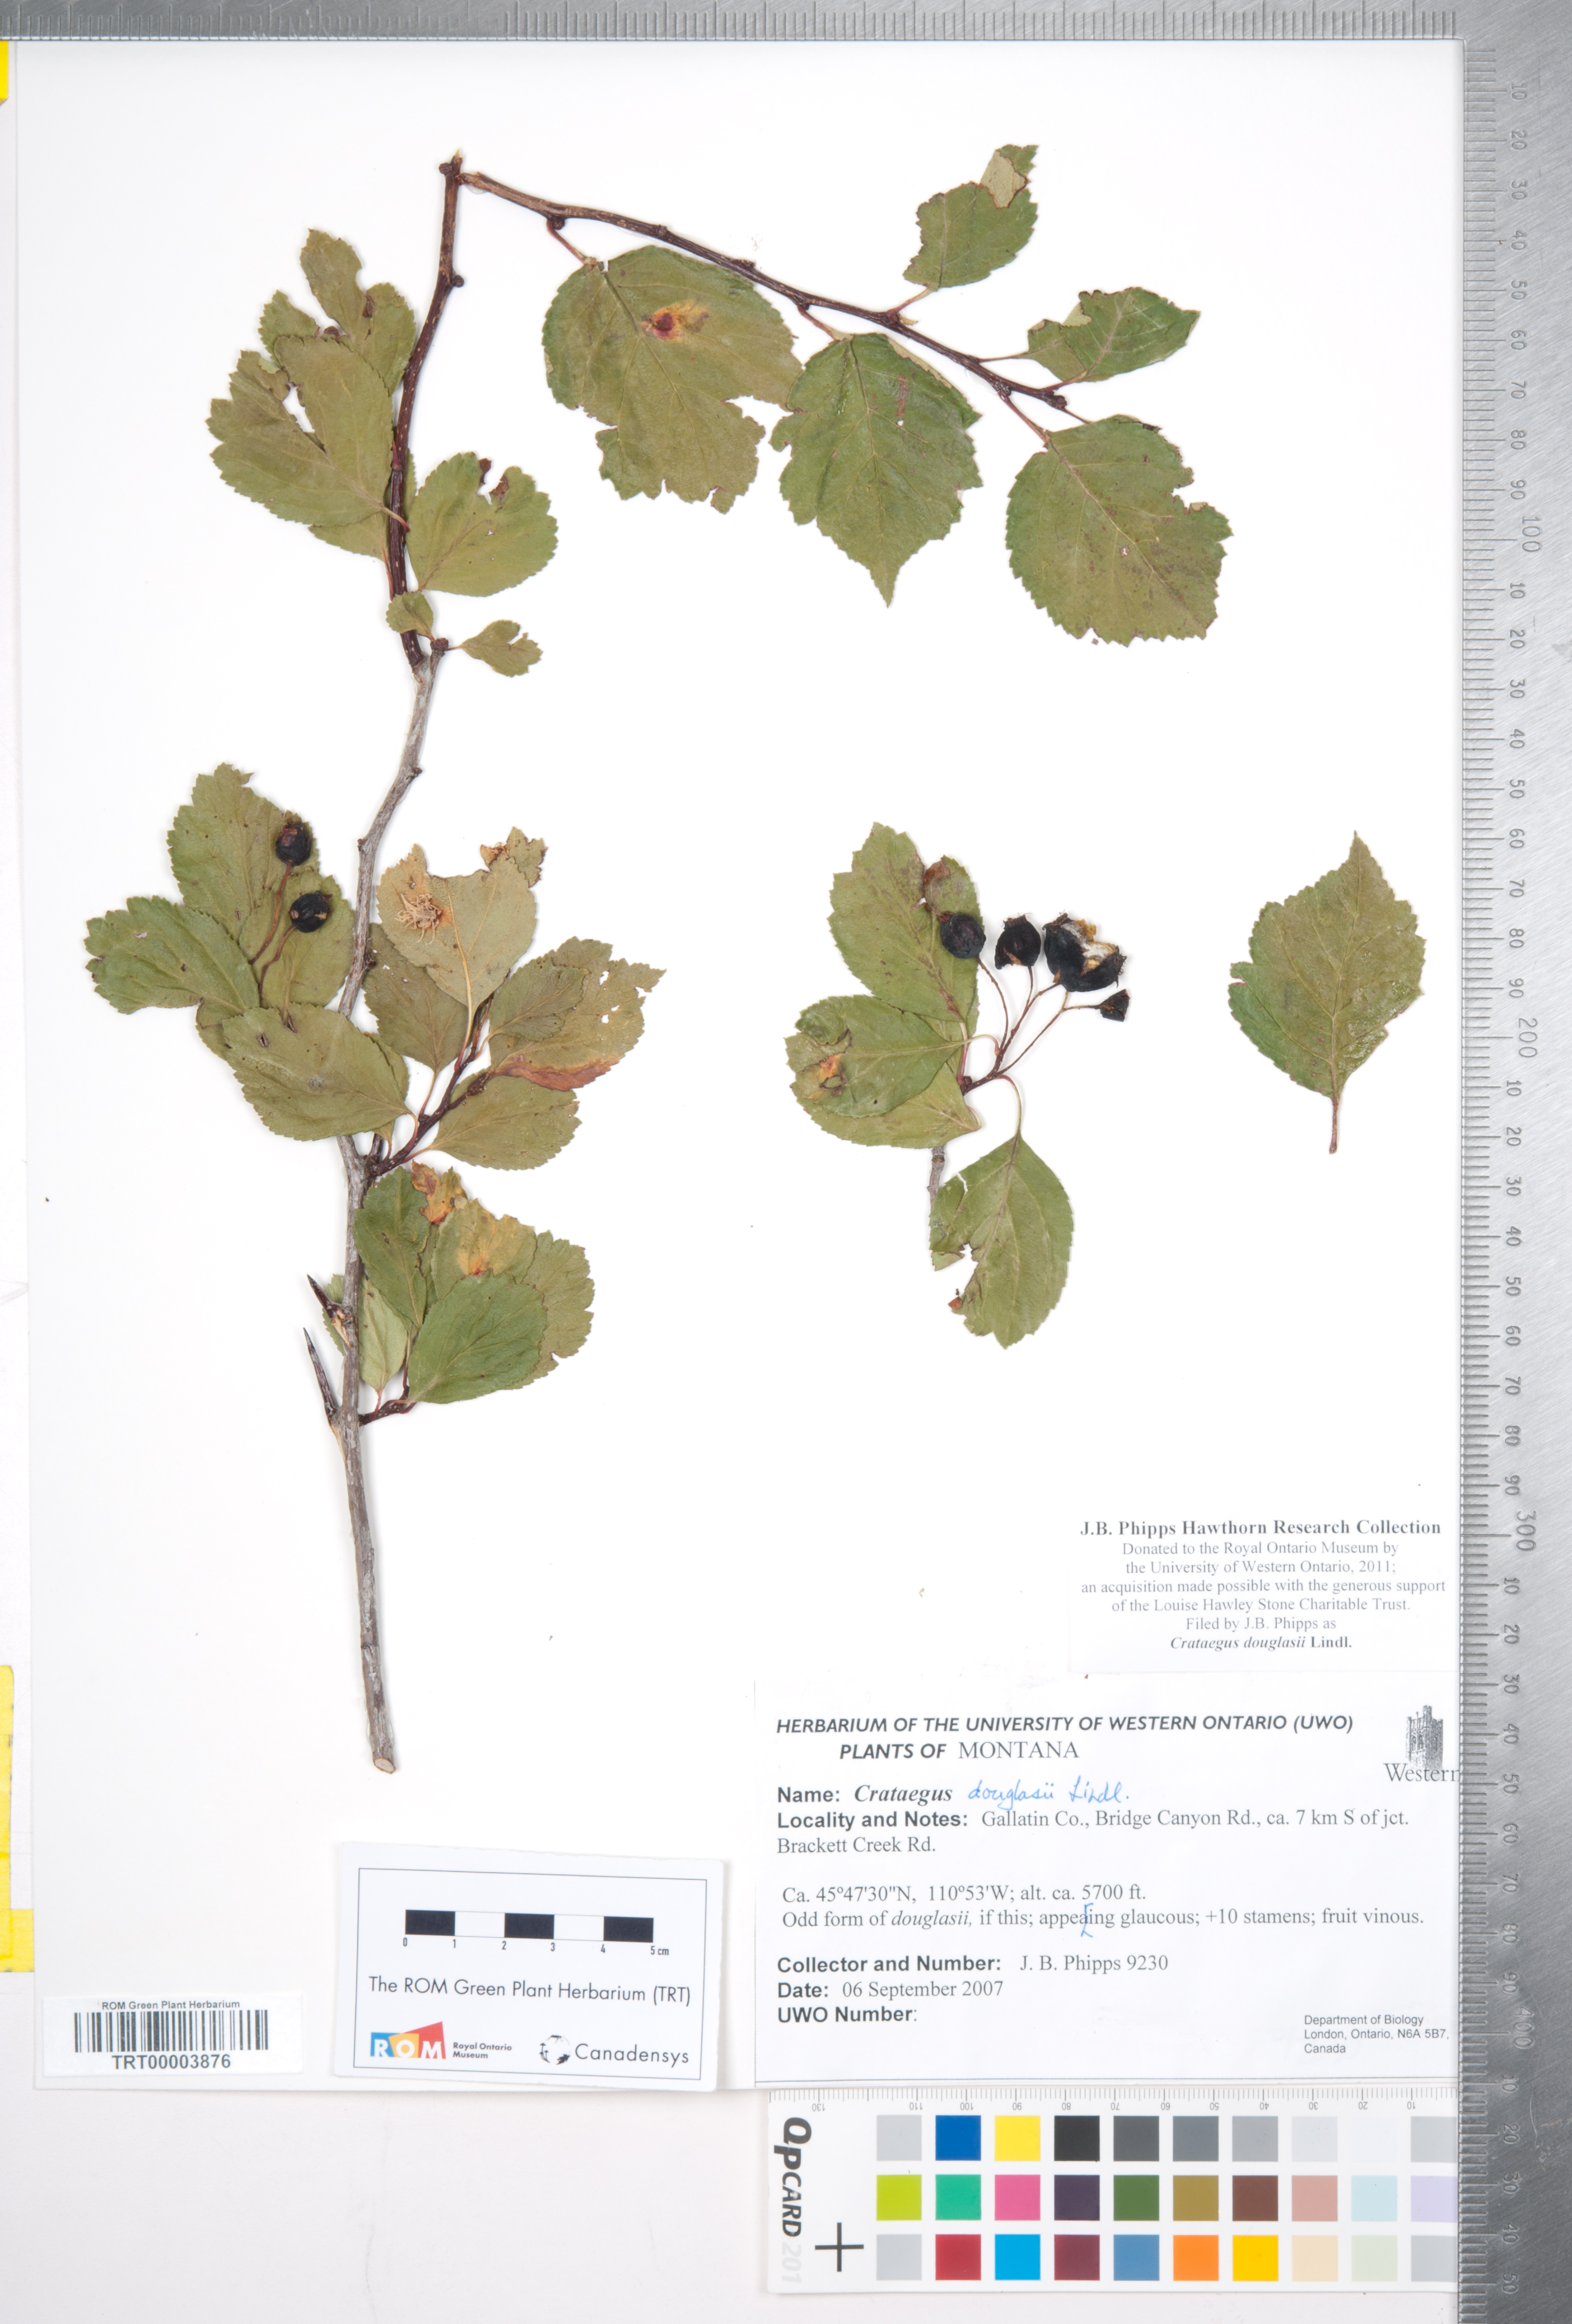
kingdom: Plantae
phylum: Tracheophyta
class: Magnoliopsida
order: Rosales
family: Rosaceae
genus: Crataegus
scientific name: Crataegus douglasii
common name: Black hawthorn
